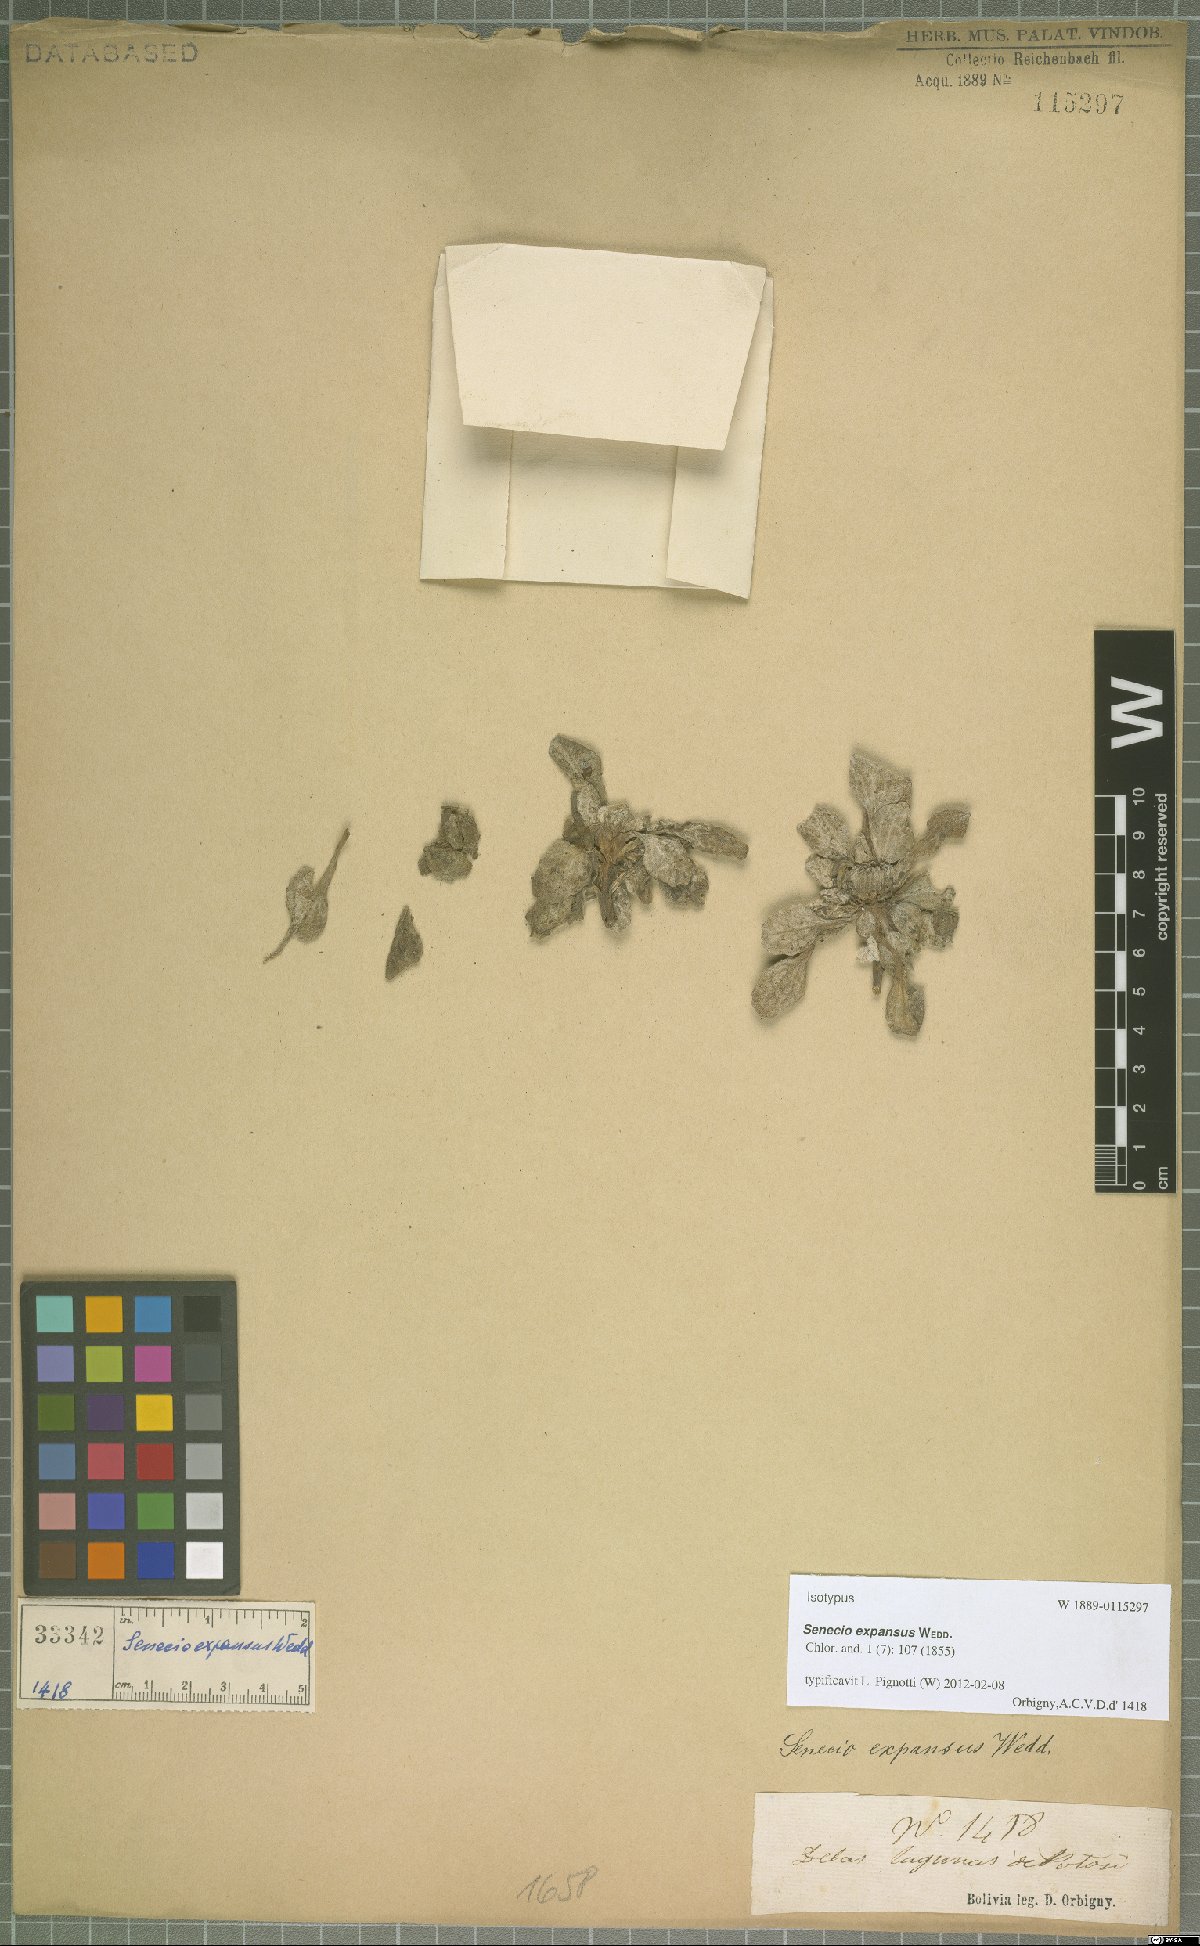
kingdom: Plantae
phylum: Tracheophyta
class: Magnoliopsida
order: Asterales
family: Asteraceae
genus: Senecio
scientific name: Senecio expansus
